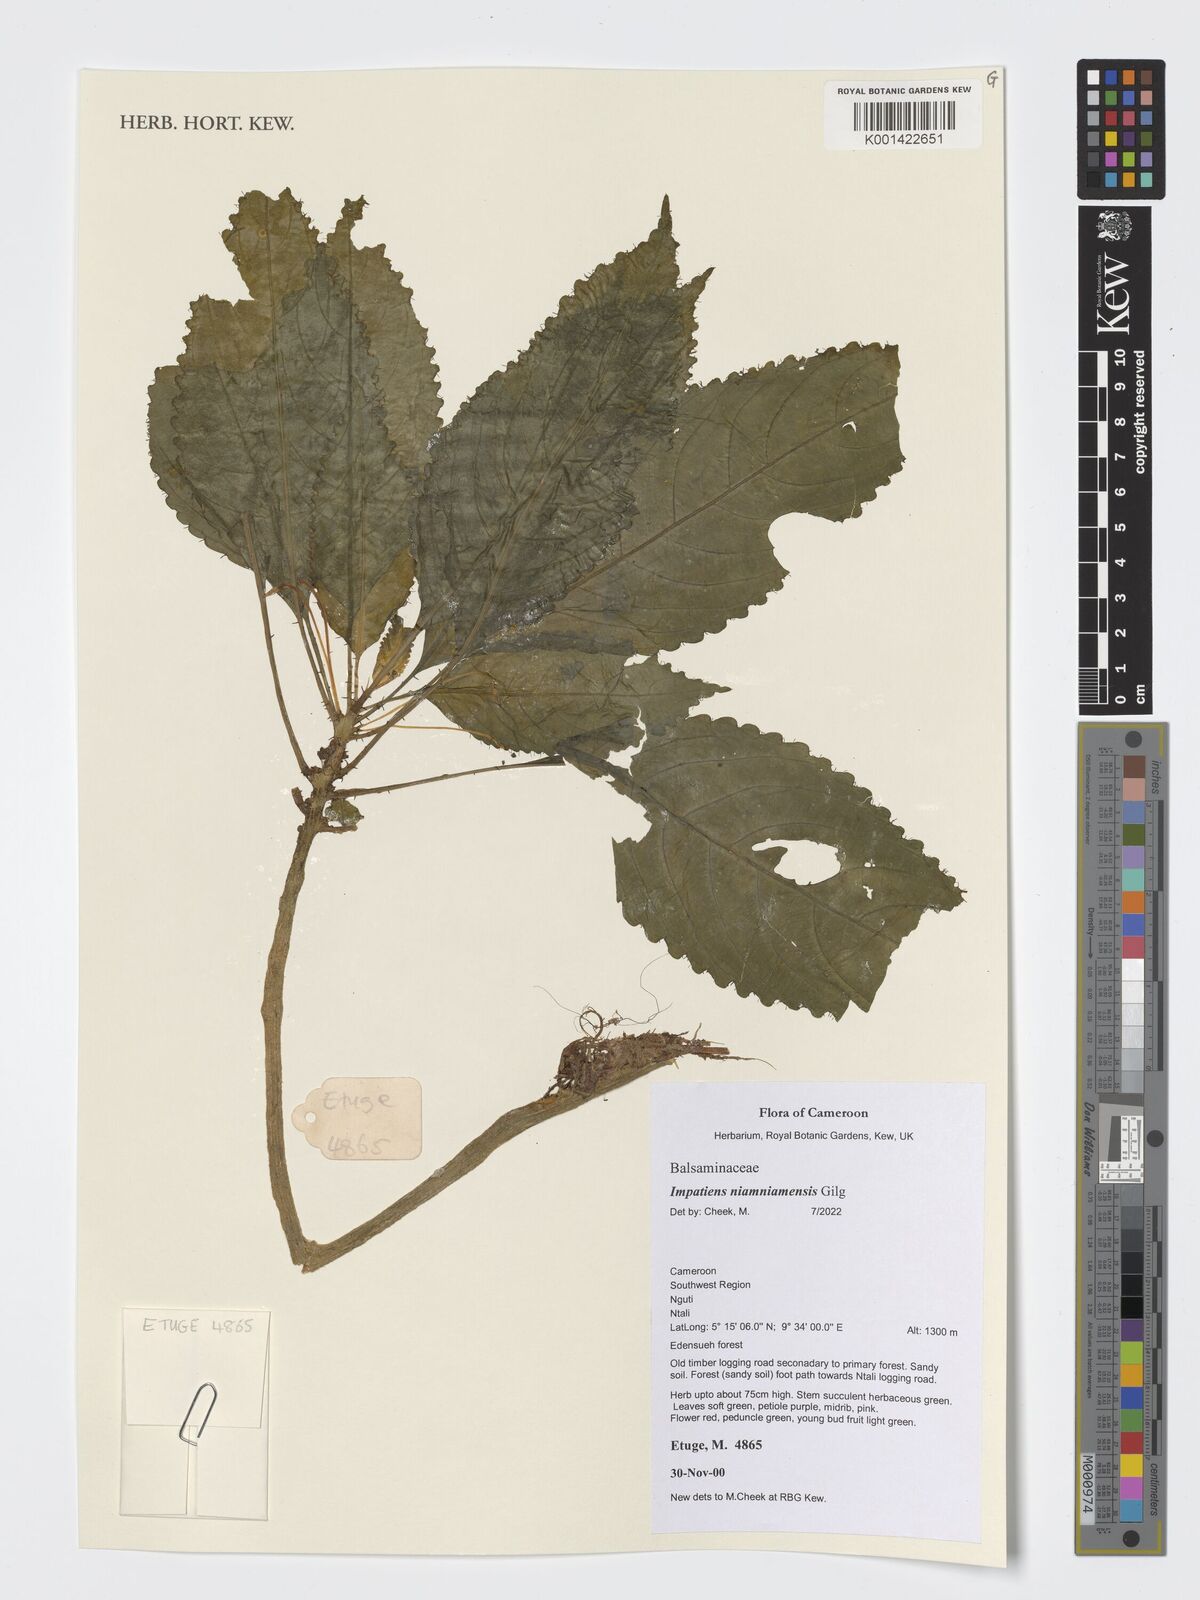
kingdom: Plantae
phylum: Tracheophyta
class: Magnoliopsida
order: Ericales
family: Balsaminaceae
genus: Impatiens
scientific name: Impatiens niamniamensis
